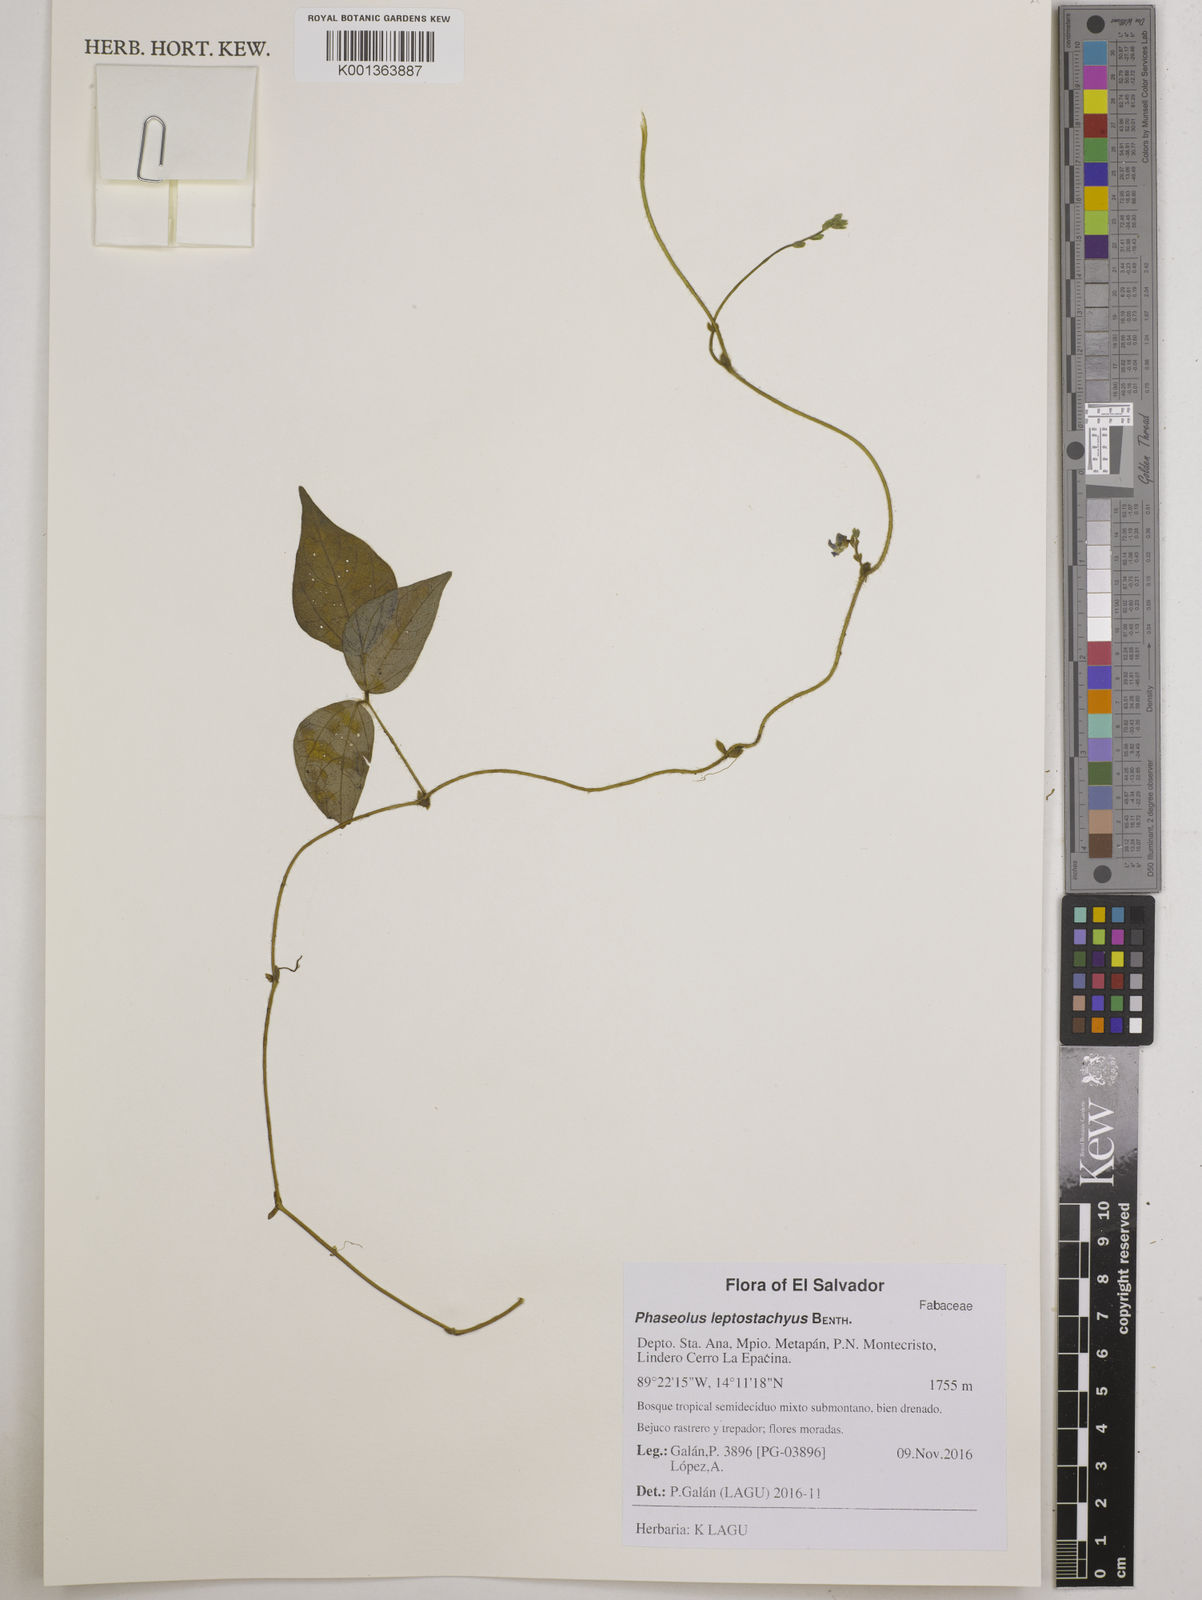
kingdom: Plantae
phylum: Tracheophyta
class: Magnoliopsida
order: Fabales
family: Fabaceae
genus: Phaseolus
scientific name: Phaseolus leptostachyus
